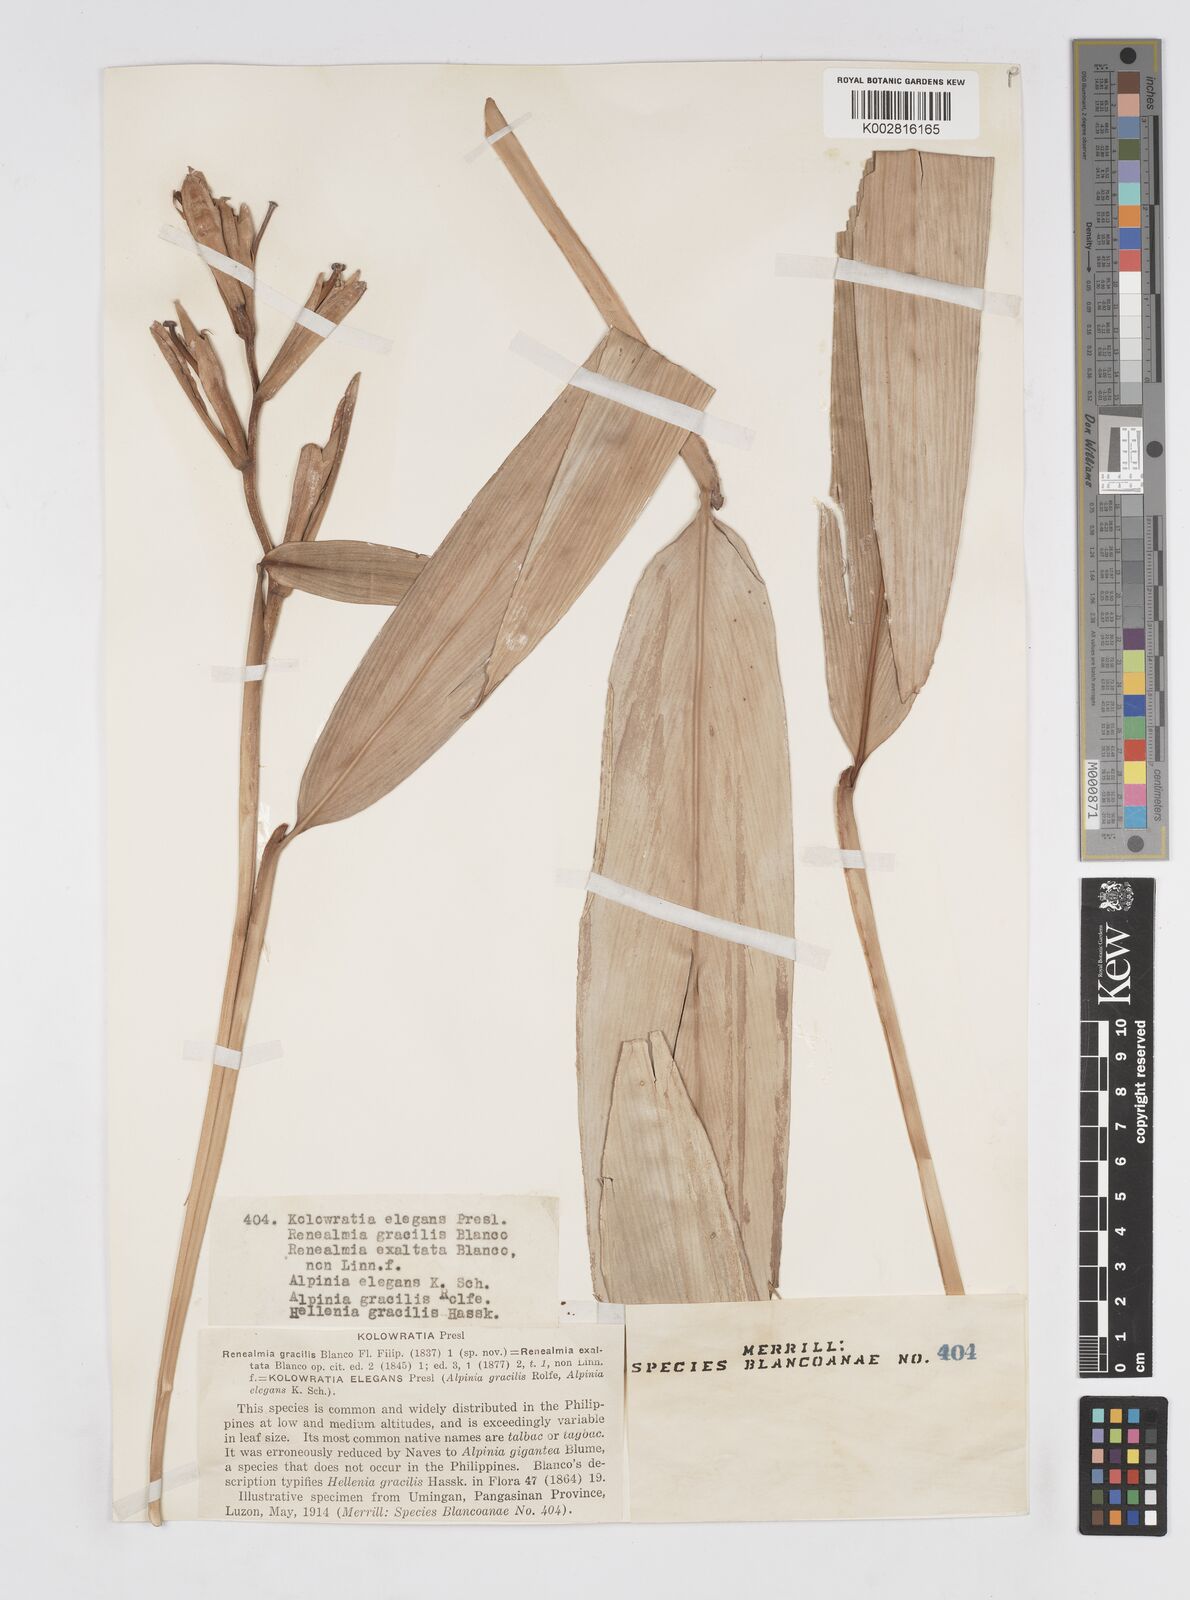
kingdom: Plantae
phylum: Tracheophyta
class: Liliopsida
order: Zingiberales
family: Zingiberaceae
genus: Alpinia
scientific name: Alpinia elegans
